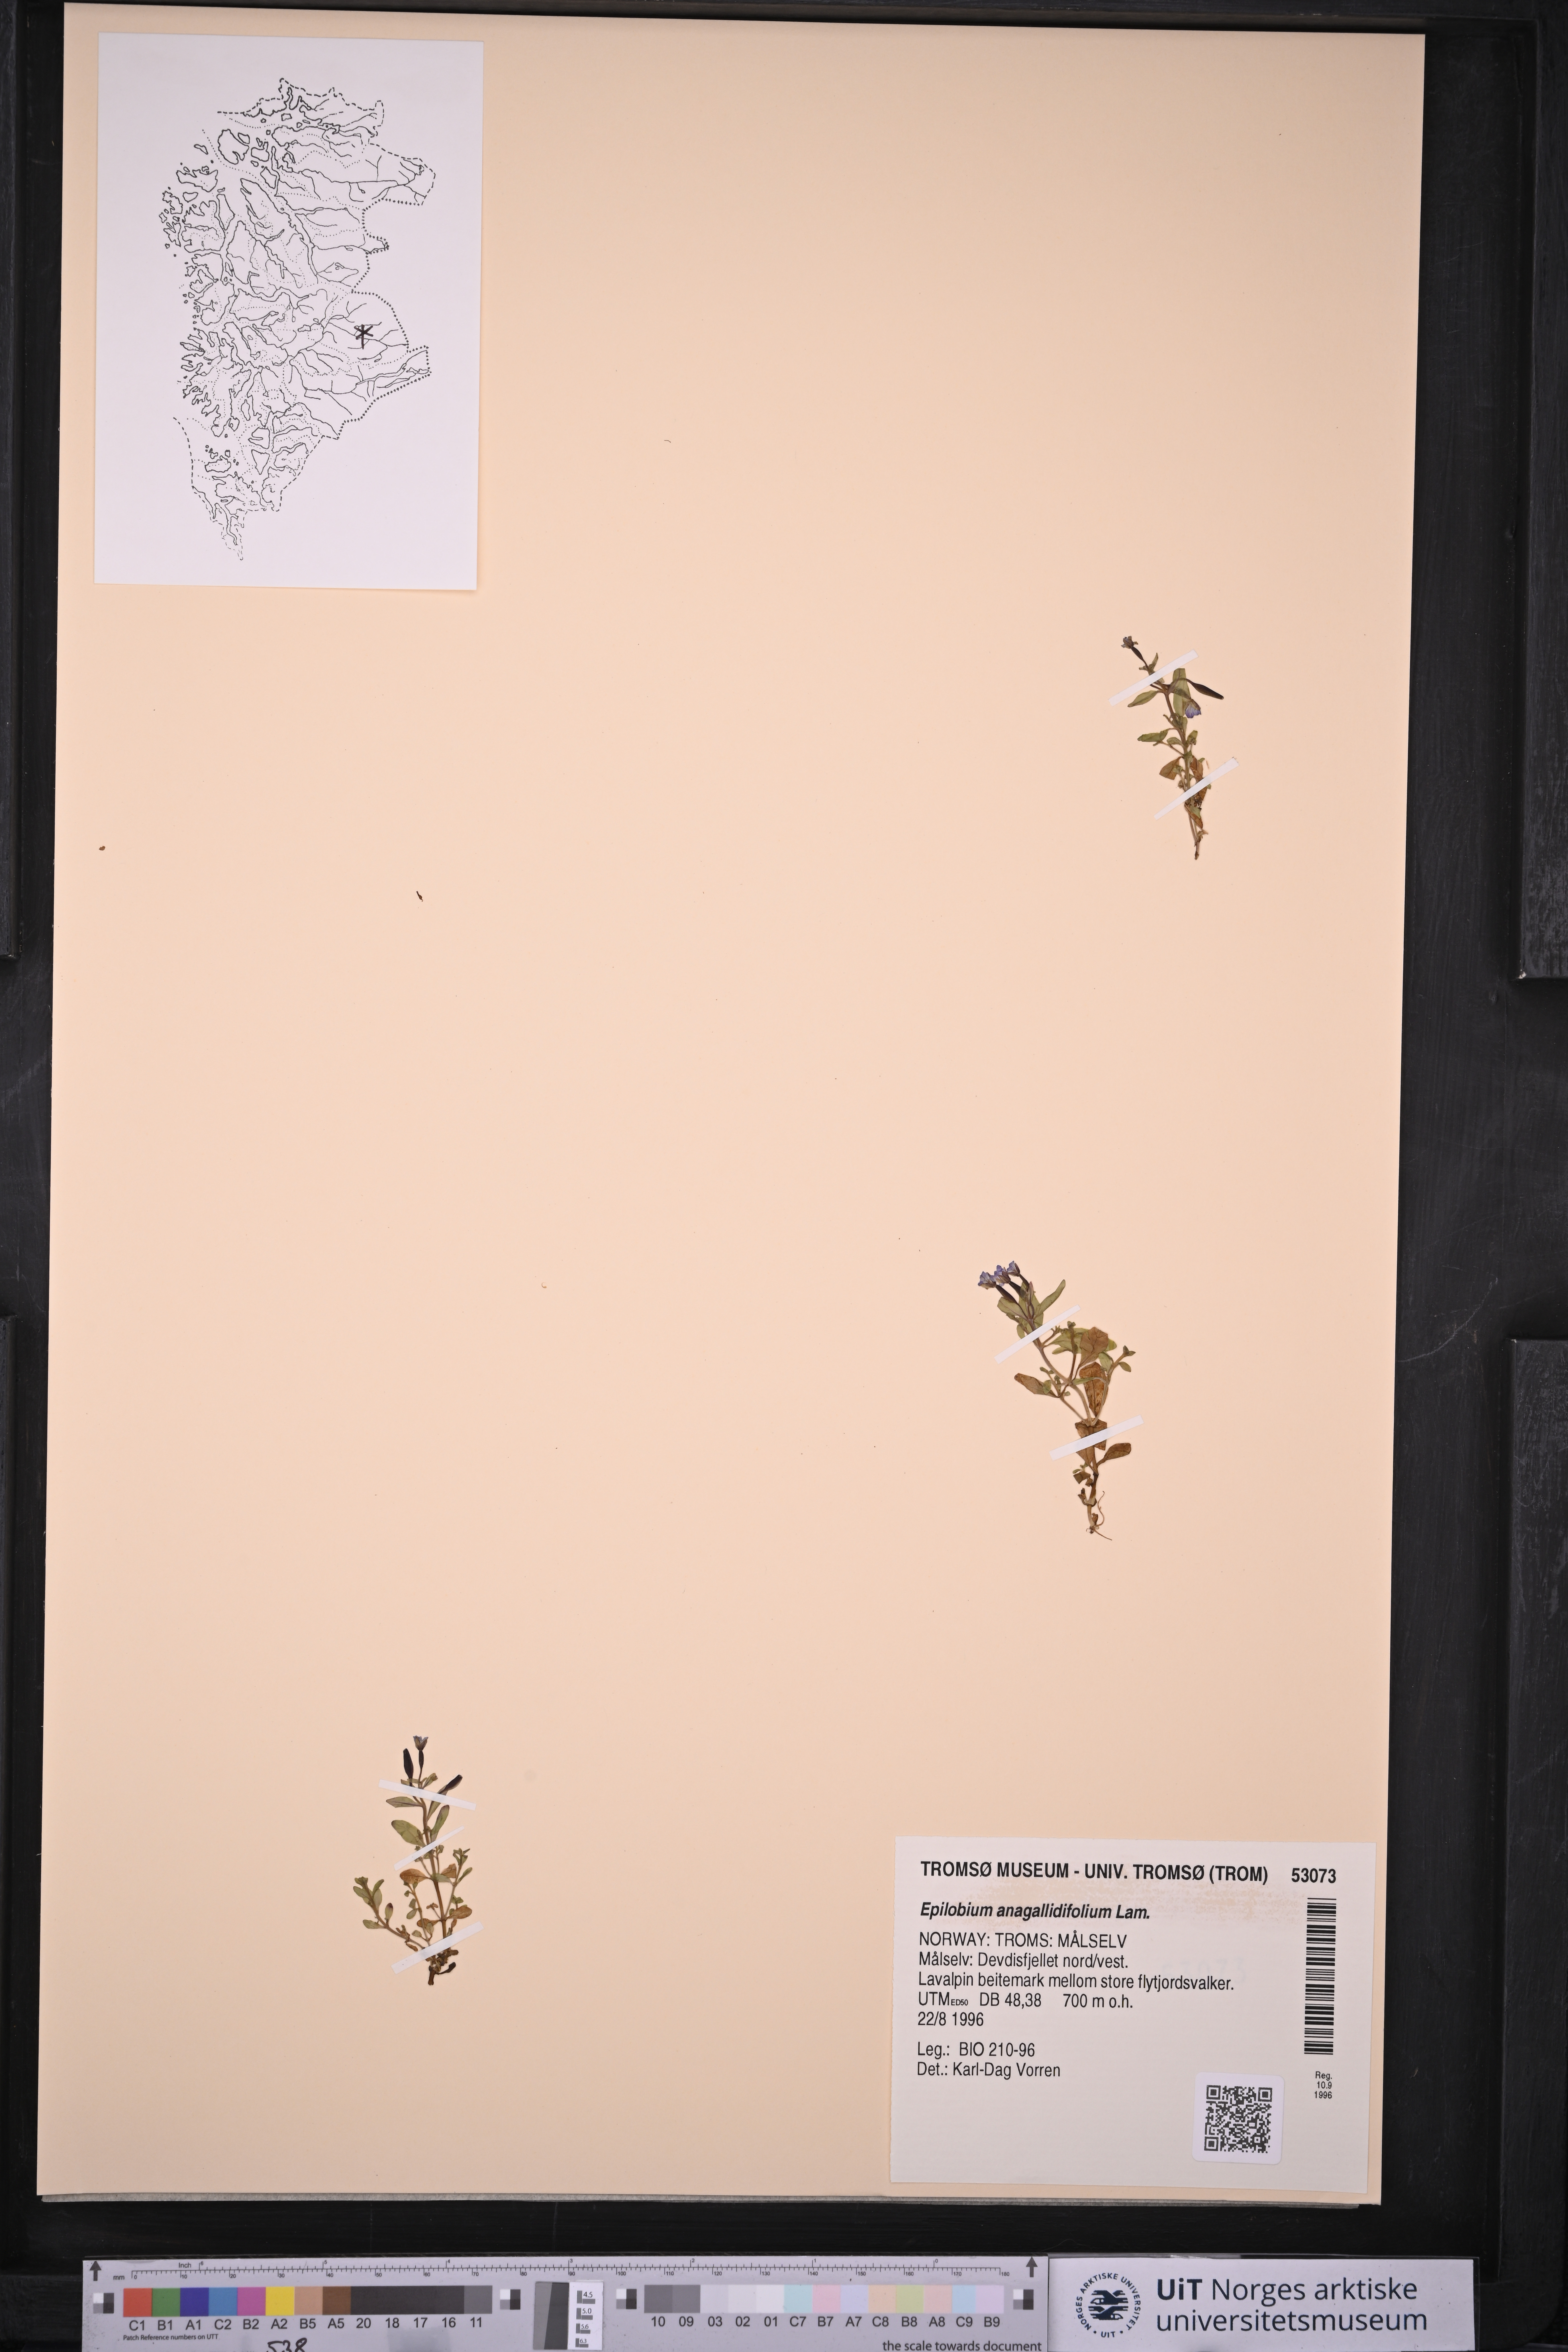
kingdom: Plantae
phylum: Tracheophyta
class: Magnoliopsida
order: Myrtales
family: Onagraceae
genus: Epilobium
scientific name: Epilobium anagallidifolium
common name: Alpine willowherb
